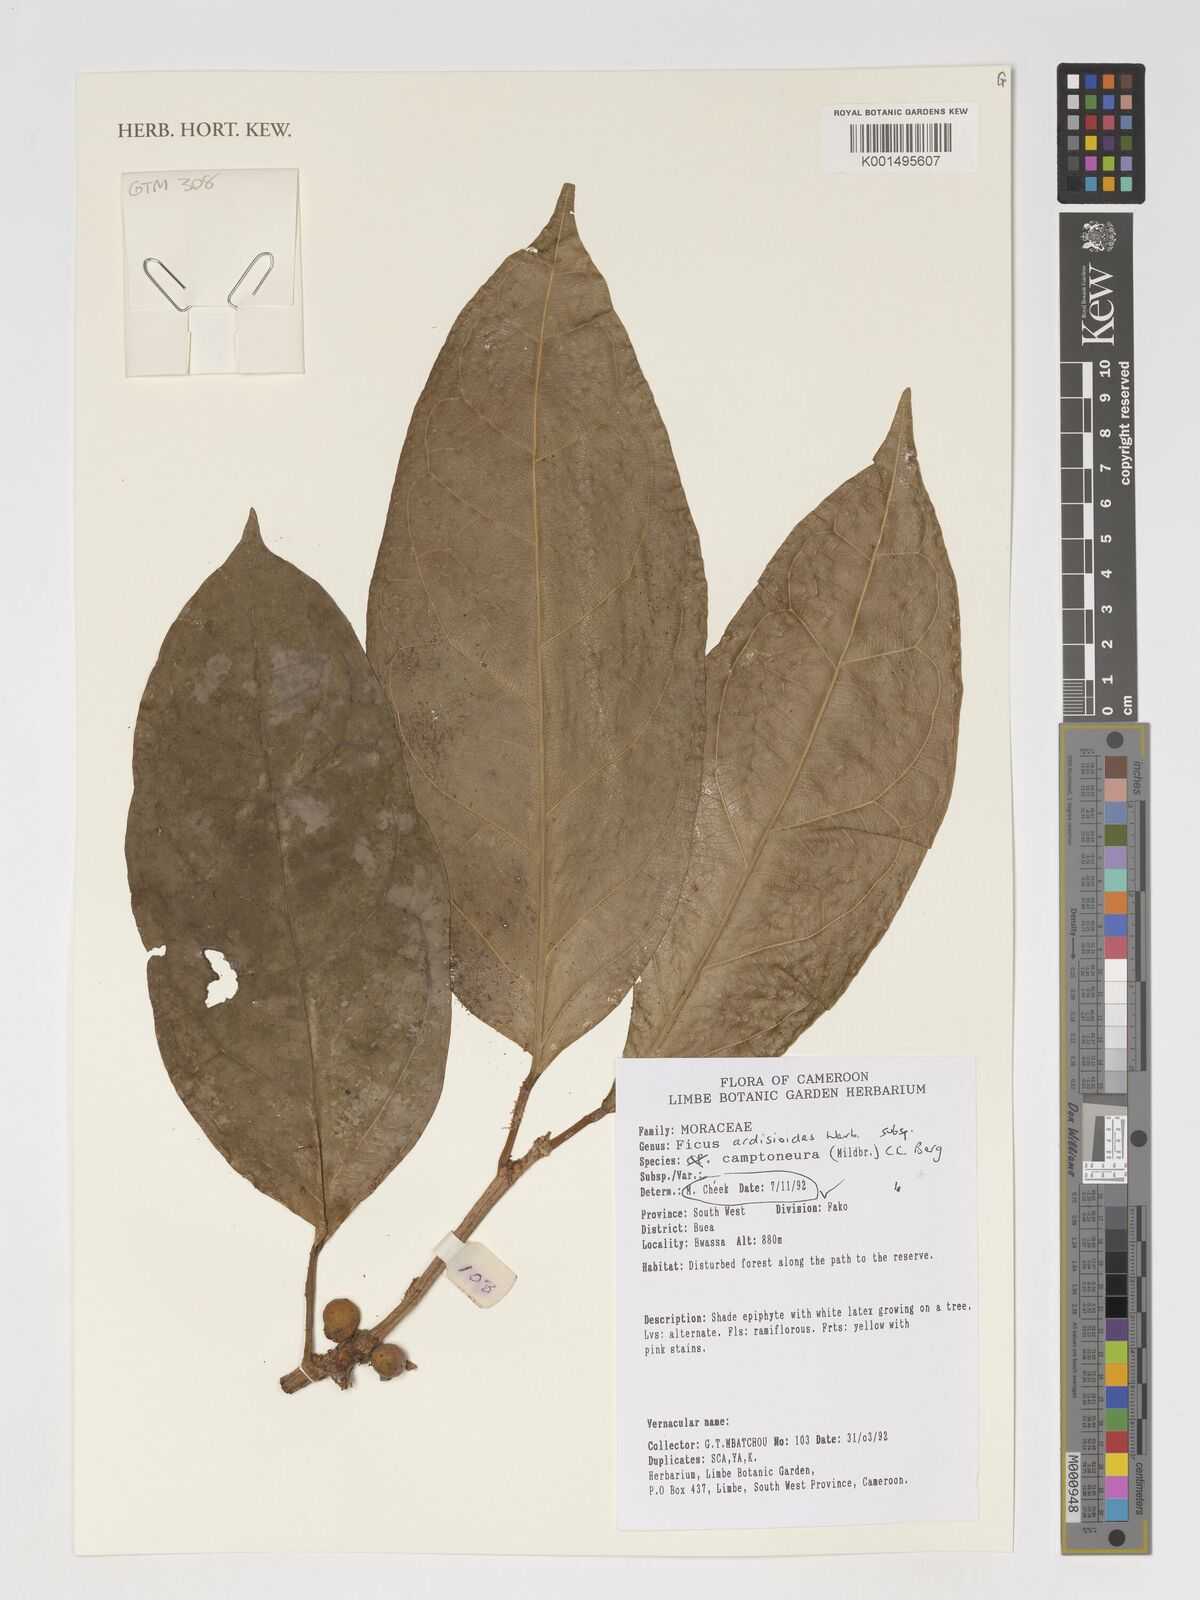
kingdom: Plantae
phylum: Tracheophyta
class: Magnoliopsida
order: Rosales
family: Moraceae
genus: Ficus
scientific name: Ficus ardisioides
